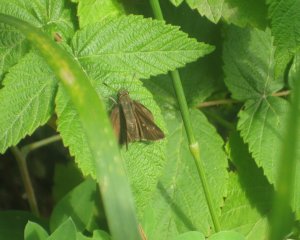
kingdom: Animalia
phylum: Arthropoda
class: Insecta
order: Lepidoptera
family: Hesperiidae
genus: Euphyes
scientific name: Euphyes vestris
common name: Dun Skipper
